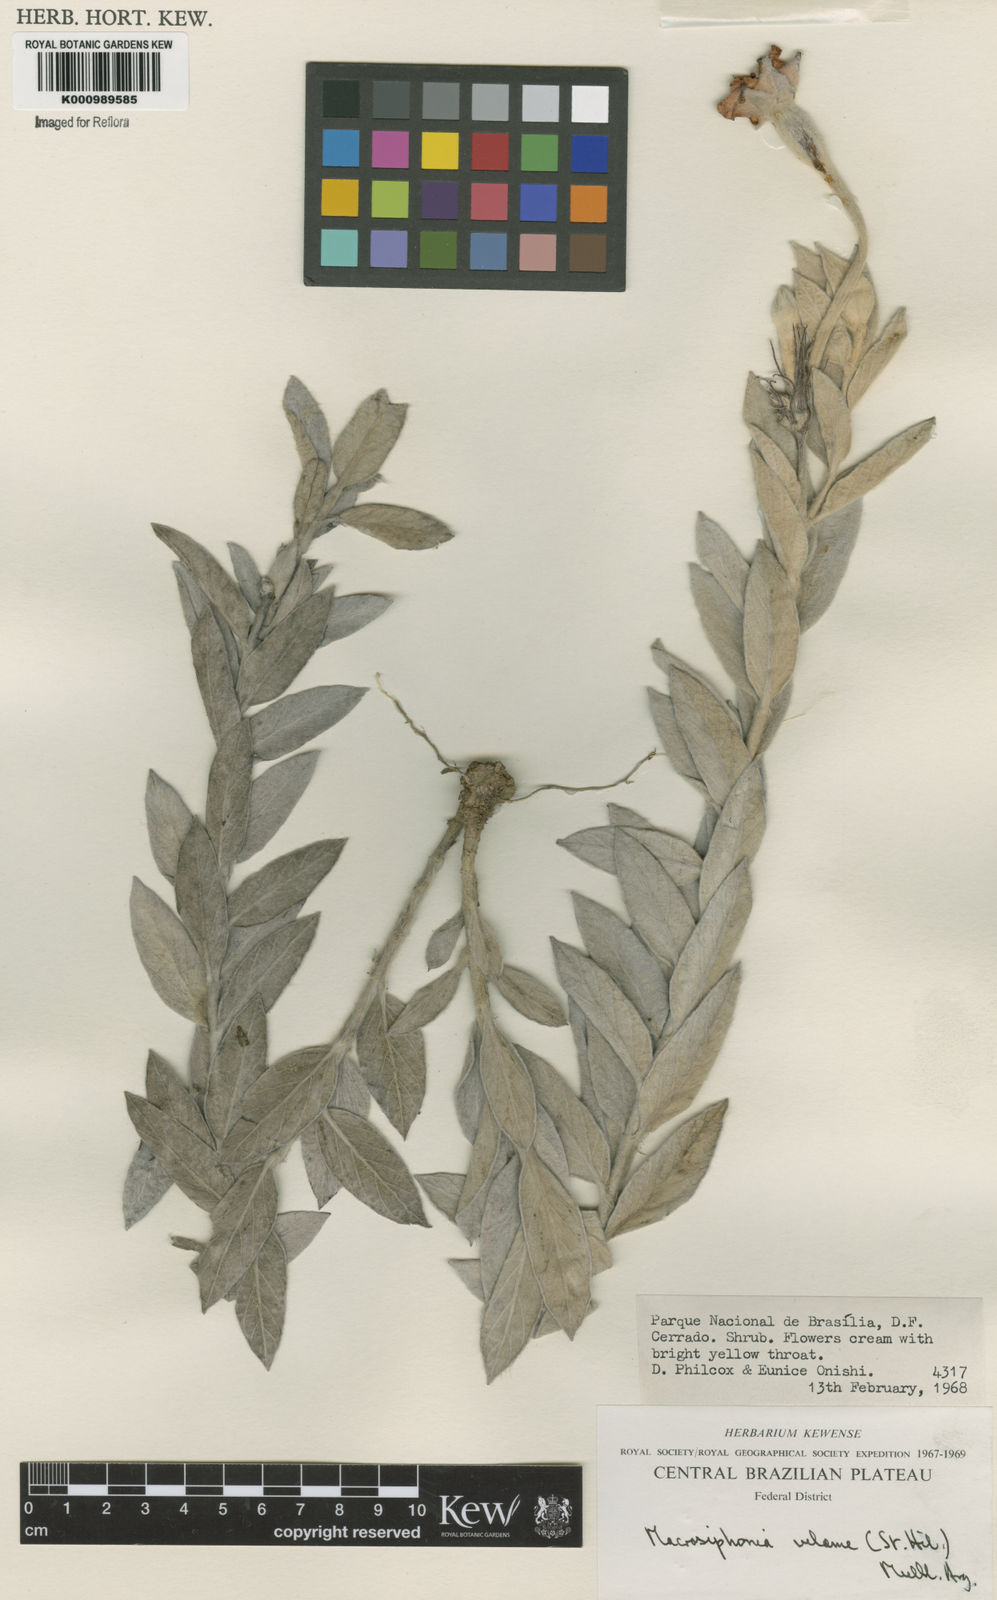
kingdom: Plantae
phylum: Tracheophyta
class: Magnoliopsida
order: Gentianales
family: Apocynaceae
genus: Mandevilla
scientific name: Mandevilla velame
